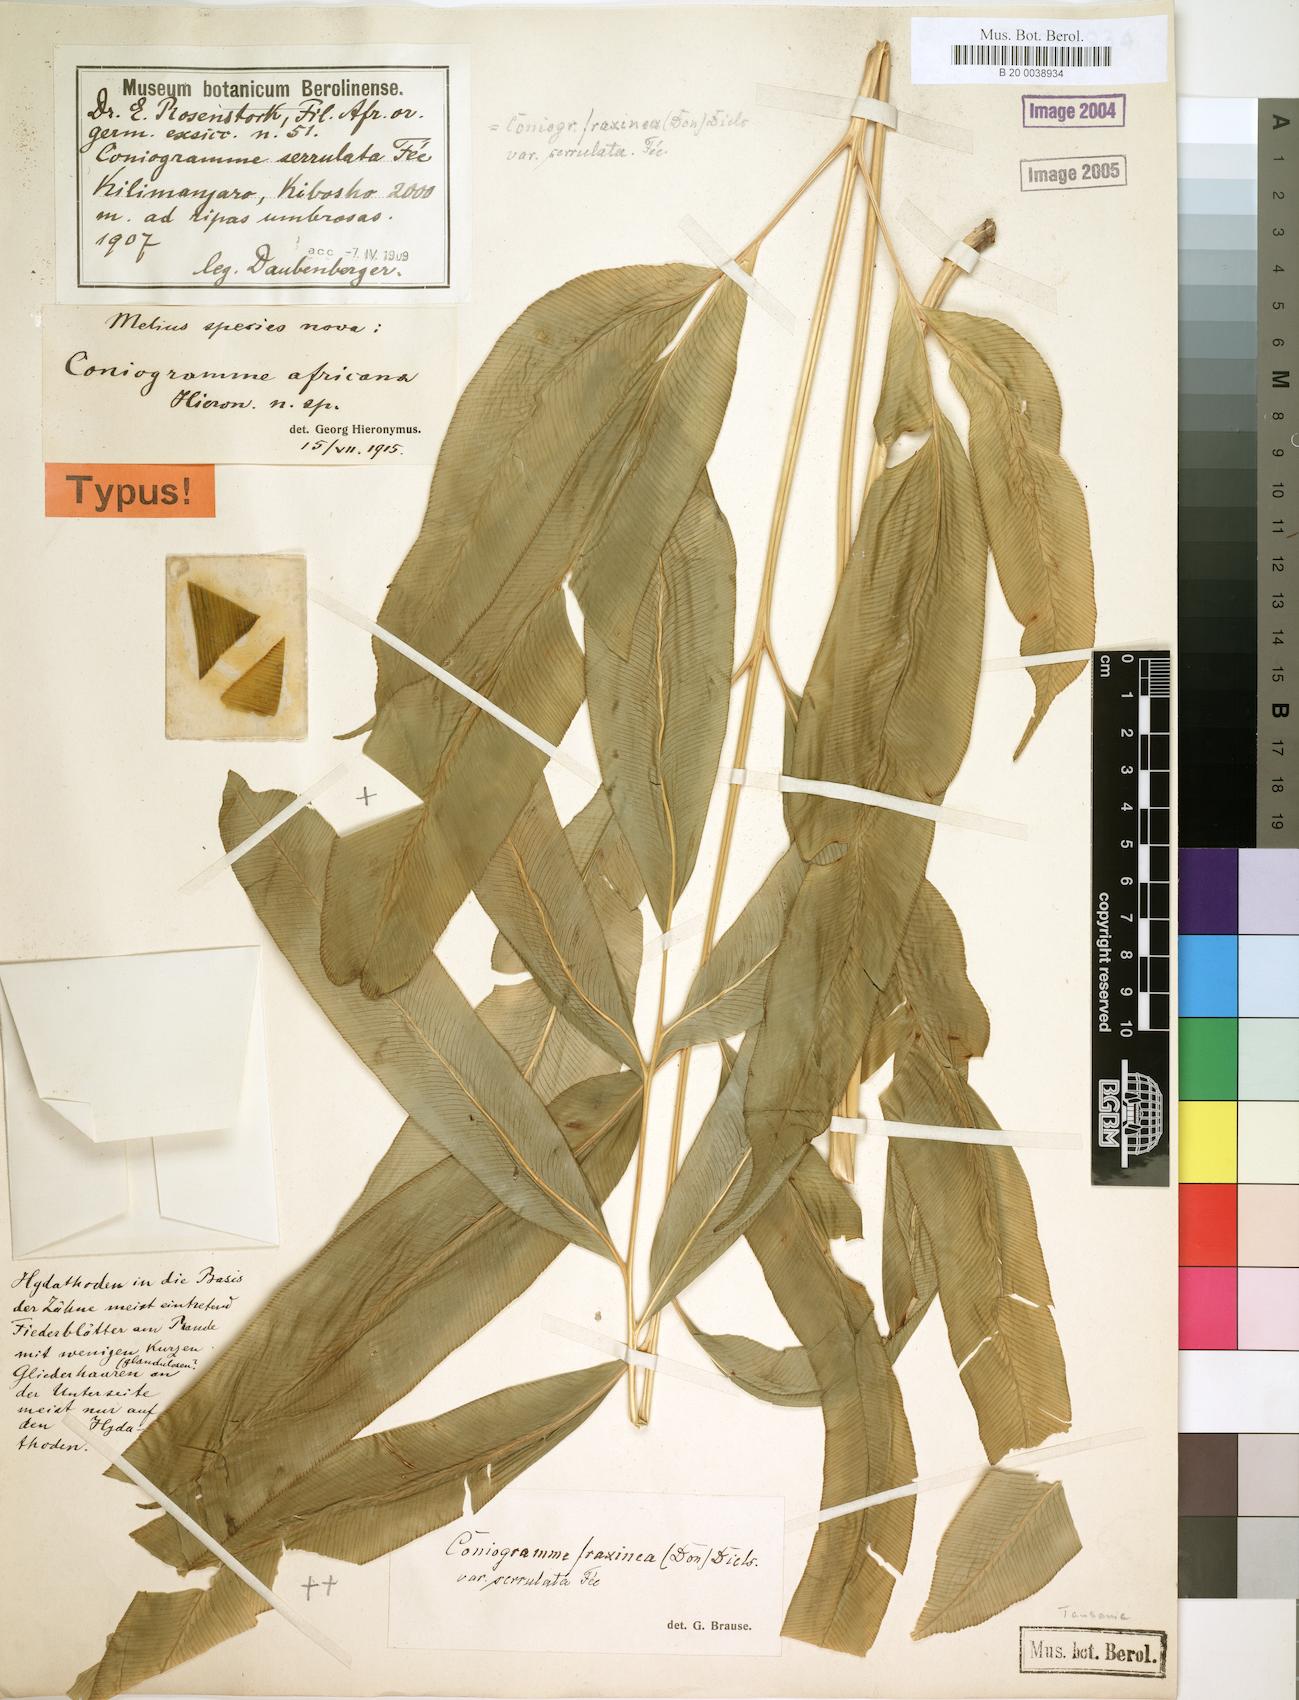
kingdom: Plantae
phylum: Tracheophyta
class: Polypodiopsida
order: Polypodiales
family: Pteridaceae
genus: Coniogramme
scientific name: Coniogramme africana
